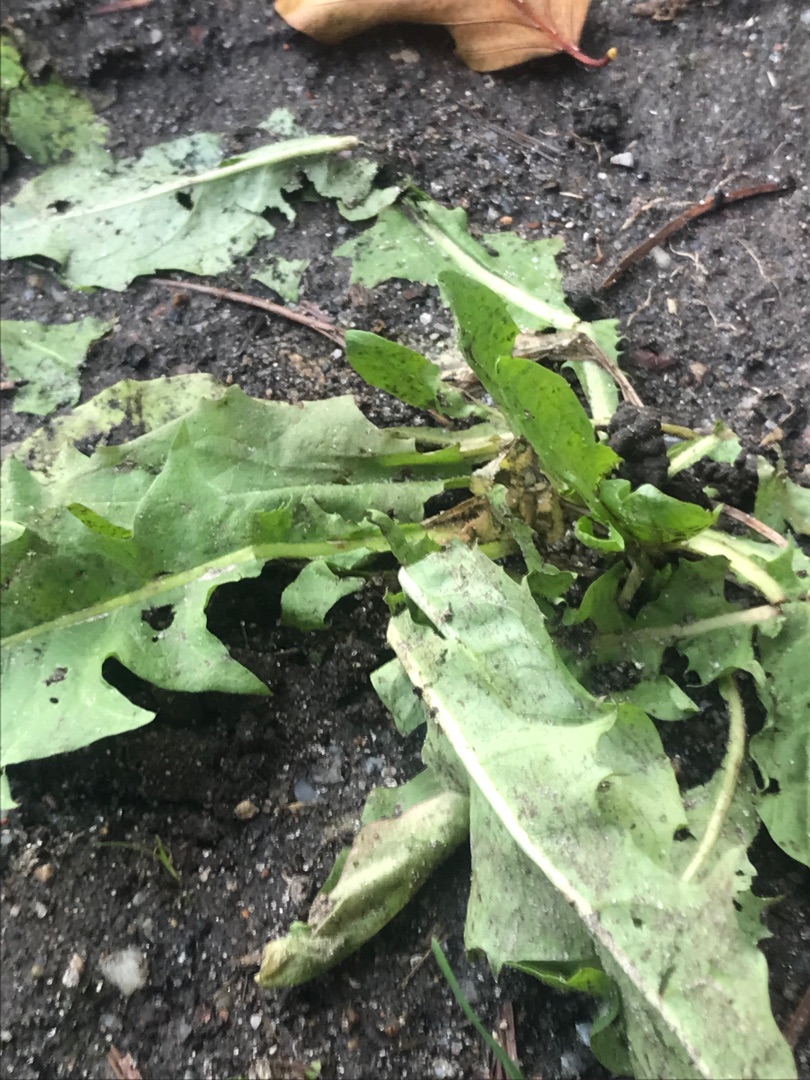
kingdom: Plantae
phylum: Tracheophyta
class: Magnoliopsida
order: Asterales
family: Asteraceae
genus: Taraxacum
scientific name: Taraxacum
